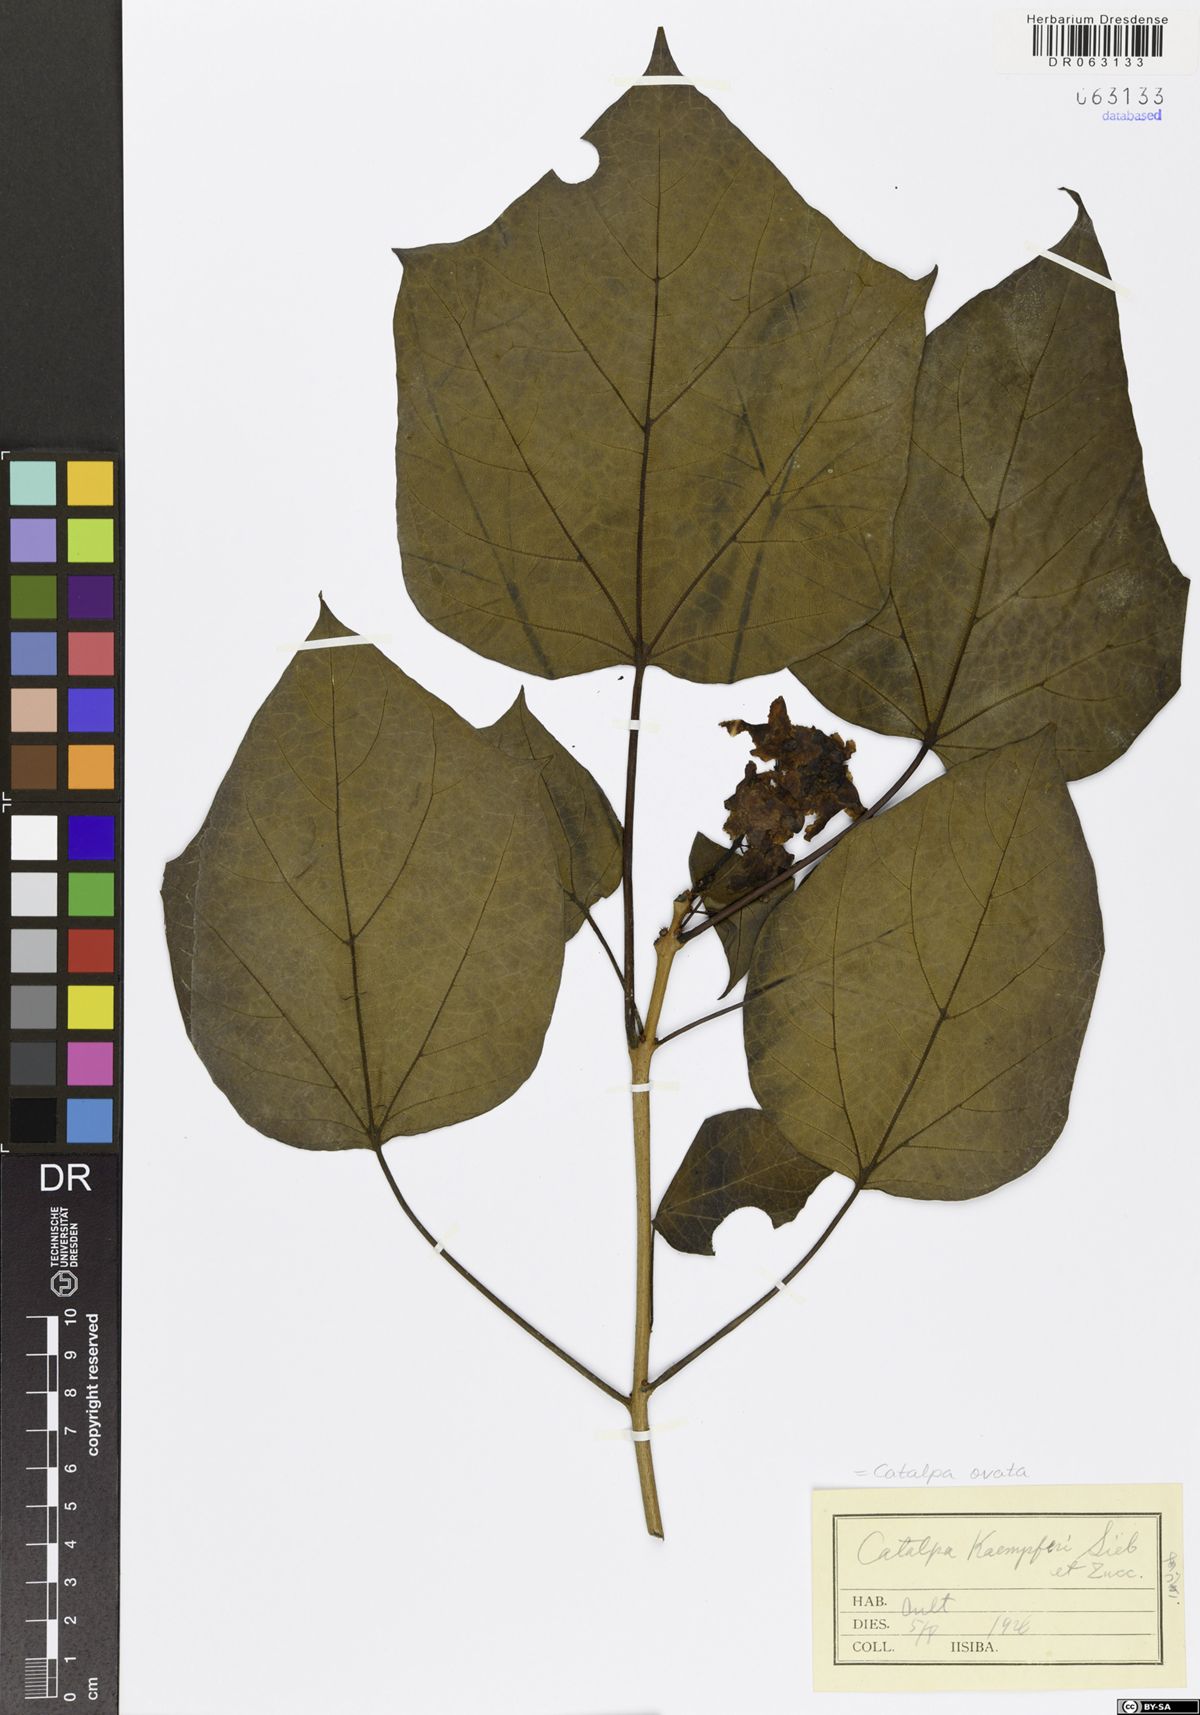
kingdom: Plantae
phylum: Tracheophyta
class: Magnoliopsida
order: Lamiales
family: Bignoniaceae
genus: Catalpa
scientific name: Catalpa ovata
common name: Chinese catalpa
